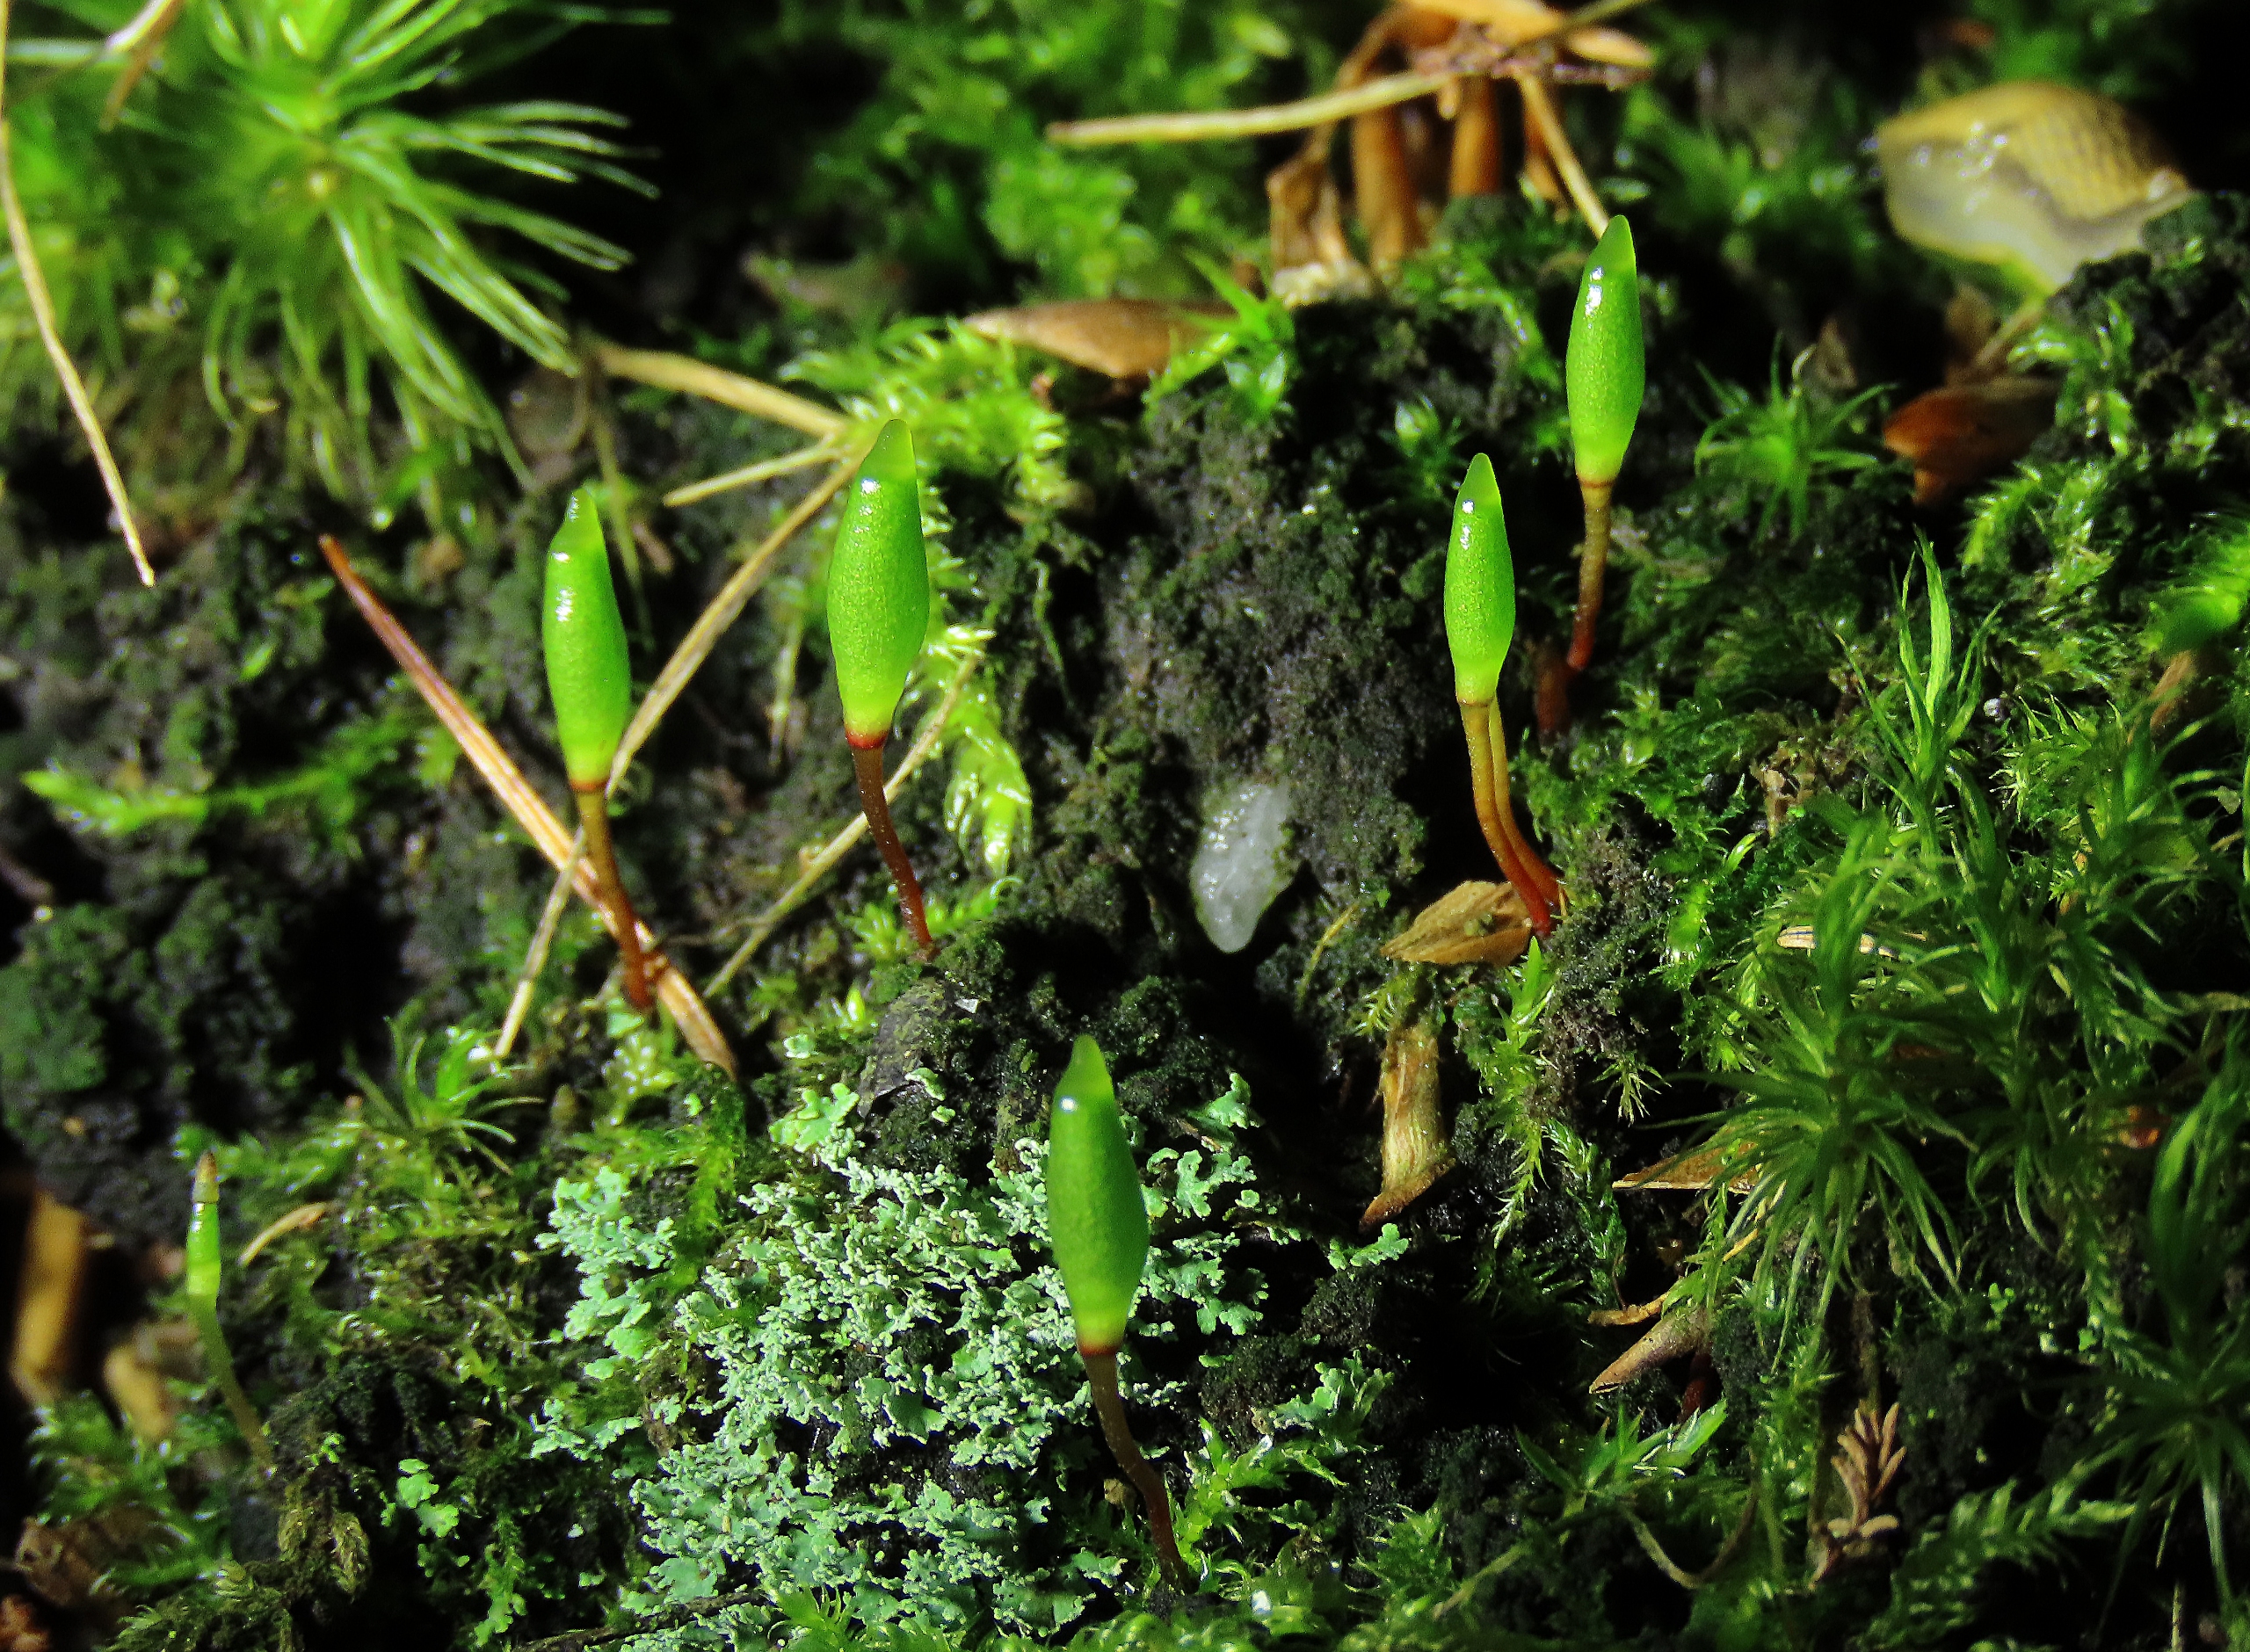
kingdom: Plantae
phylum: Bryophyta
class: Bryopsida
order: Buxbaumiales
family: Buxbaumiaceae
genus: Buxbaumia
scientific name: Buxbaumia viridis
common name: Grøn buxbaumia
